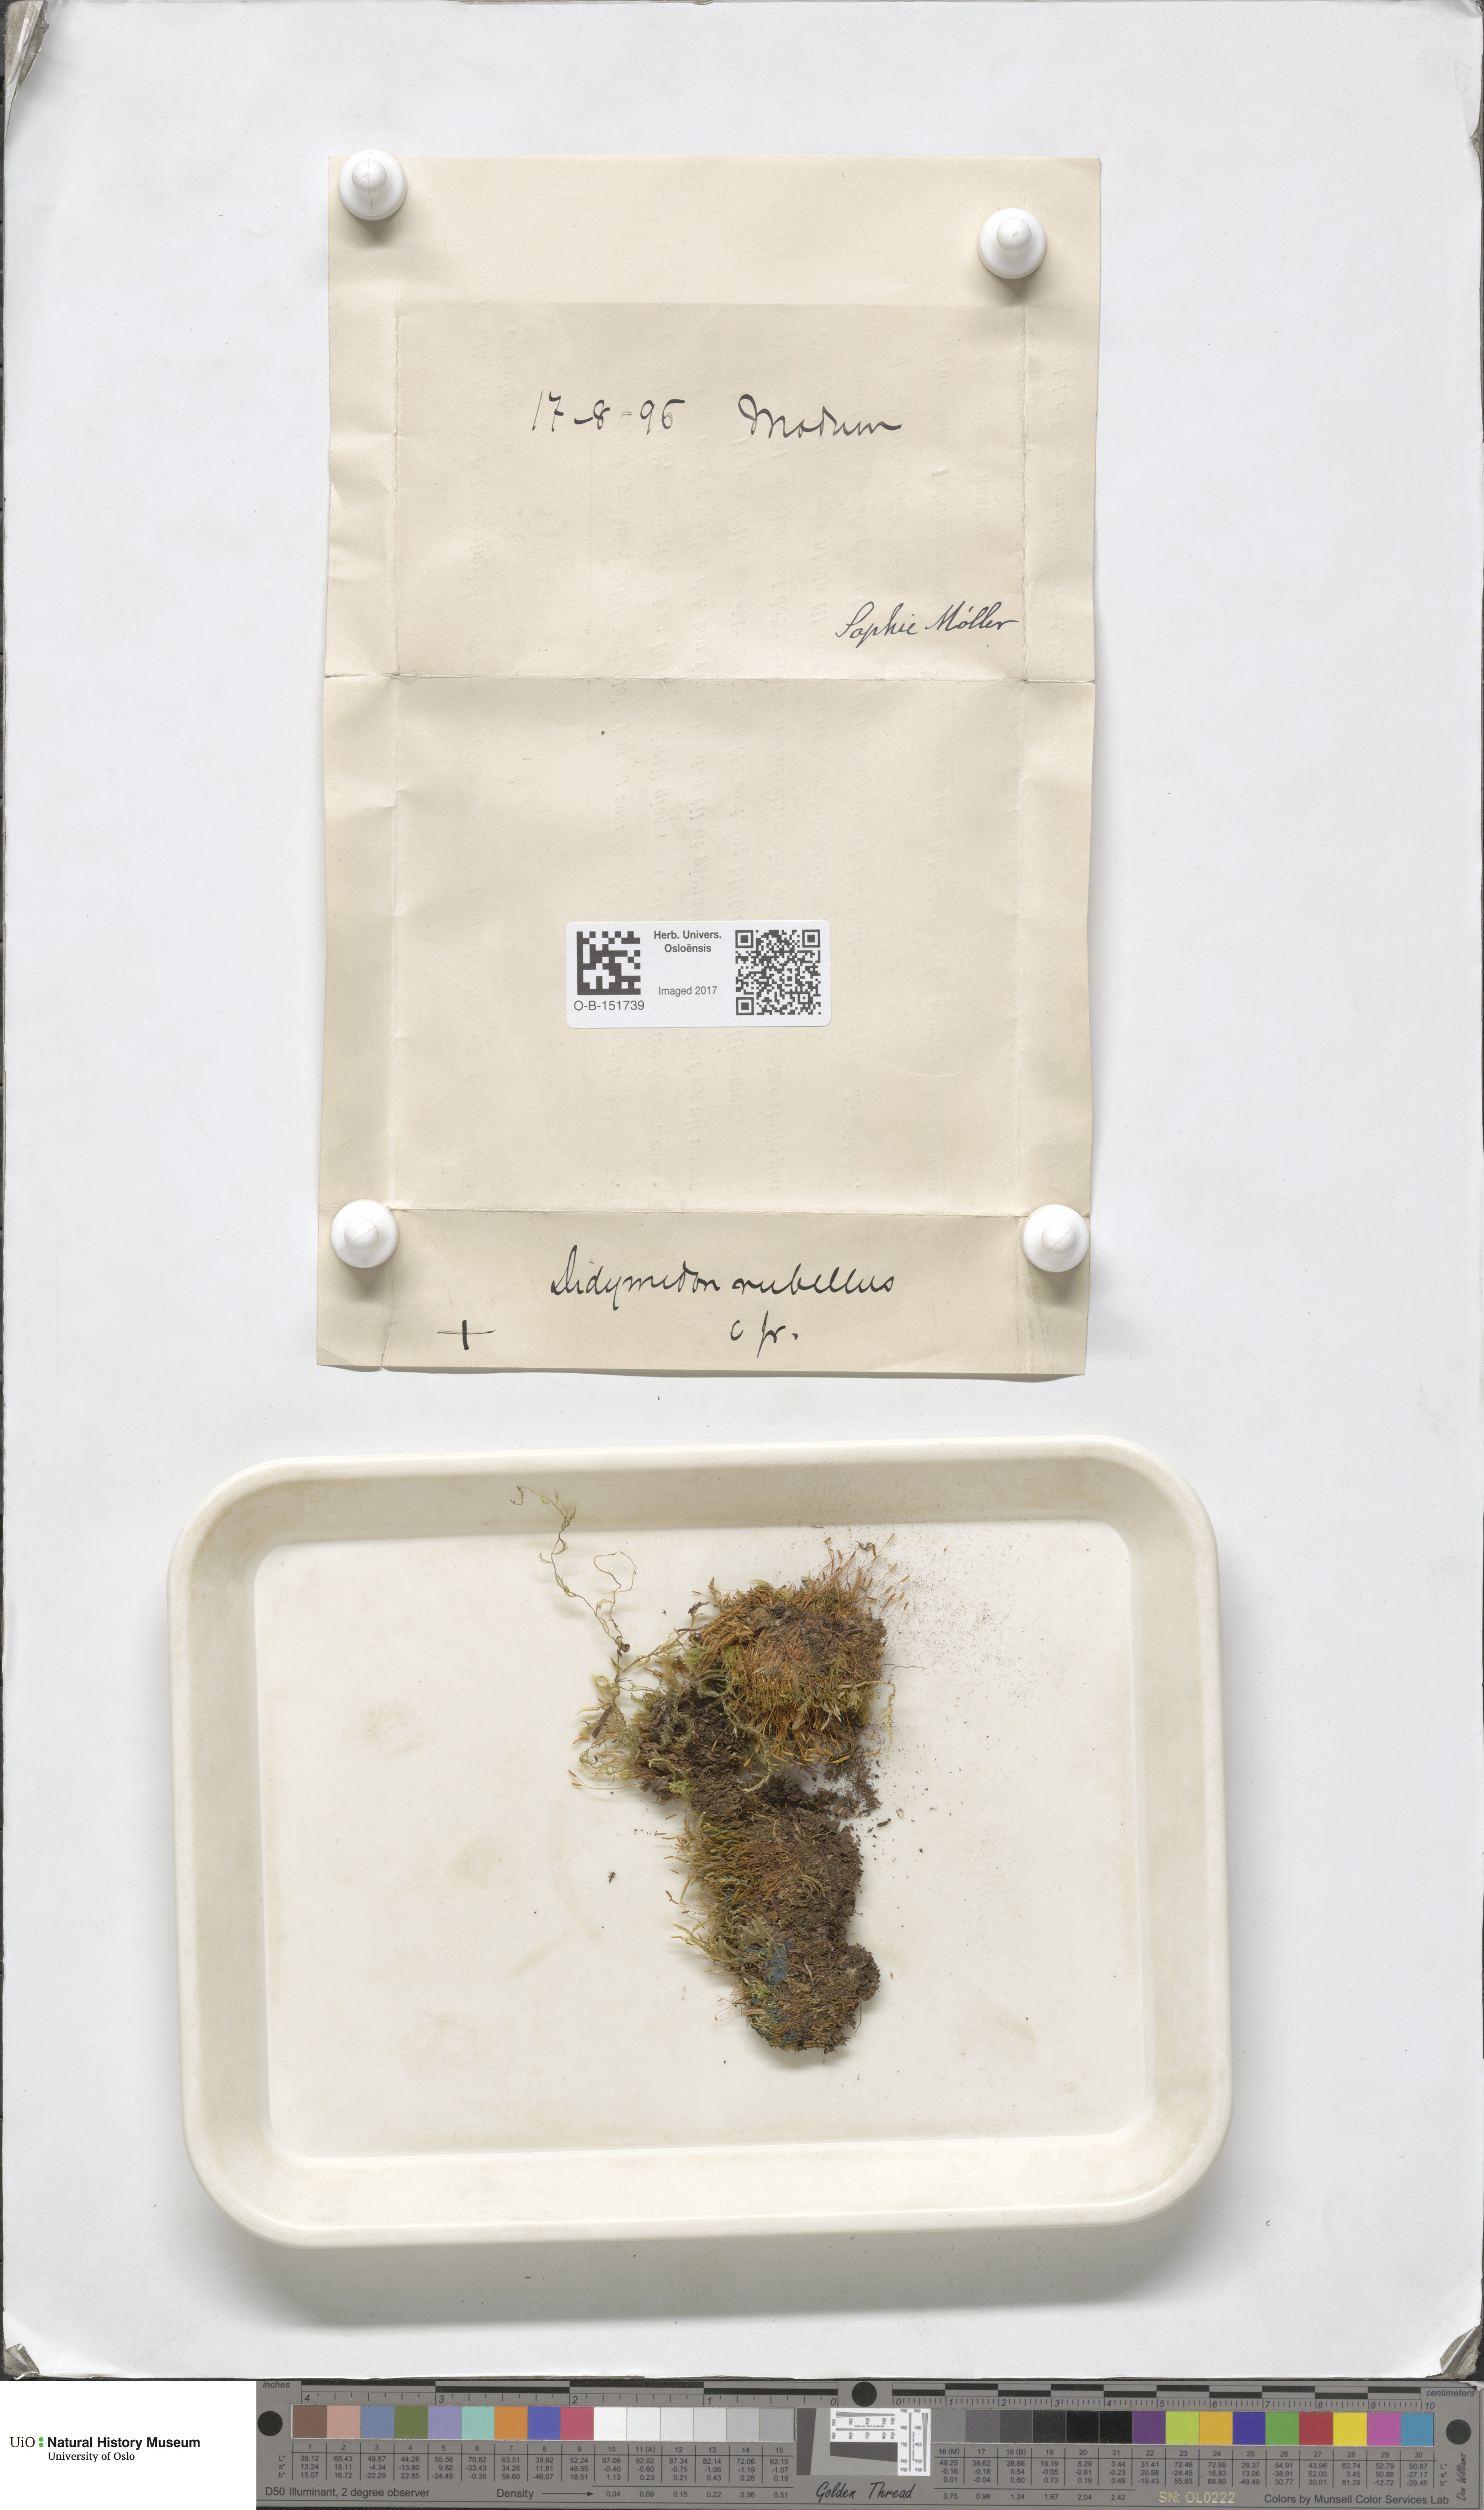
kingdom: Plantae
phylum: Bryophyta
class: Bryopsida
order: Pottiales
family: Pottiaceae
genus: Bryoerythrophyllum
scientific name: Bryoerythrophyllum recurvirostrum
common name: Red beard moss
